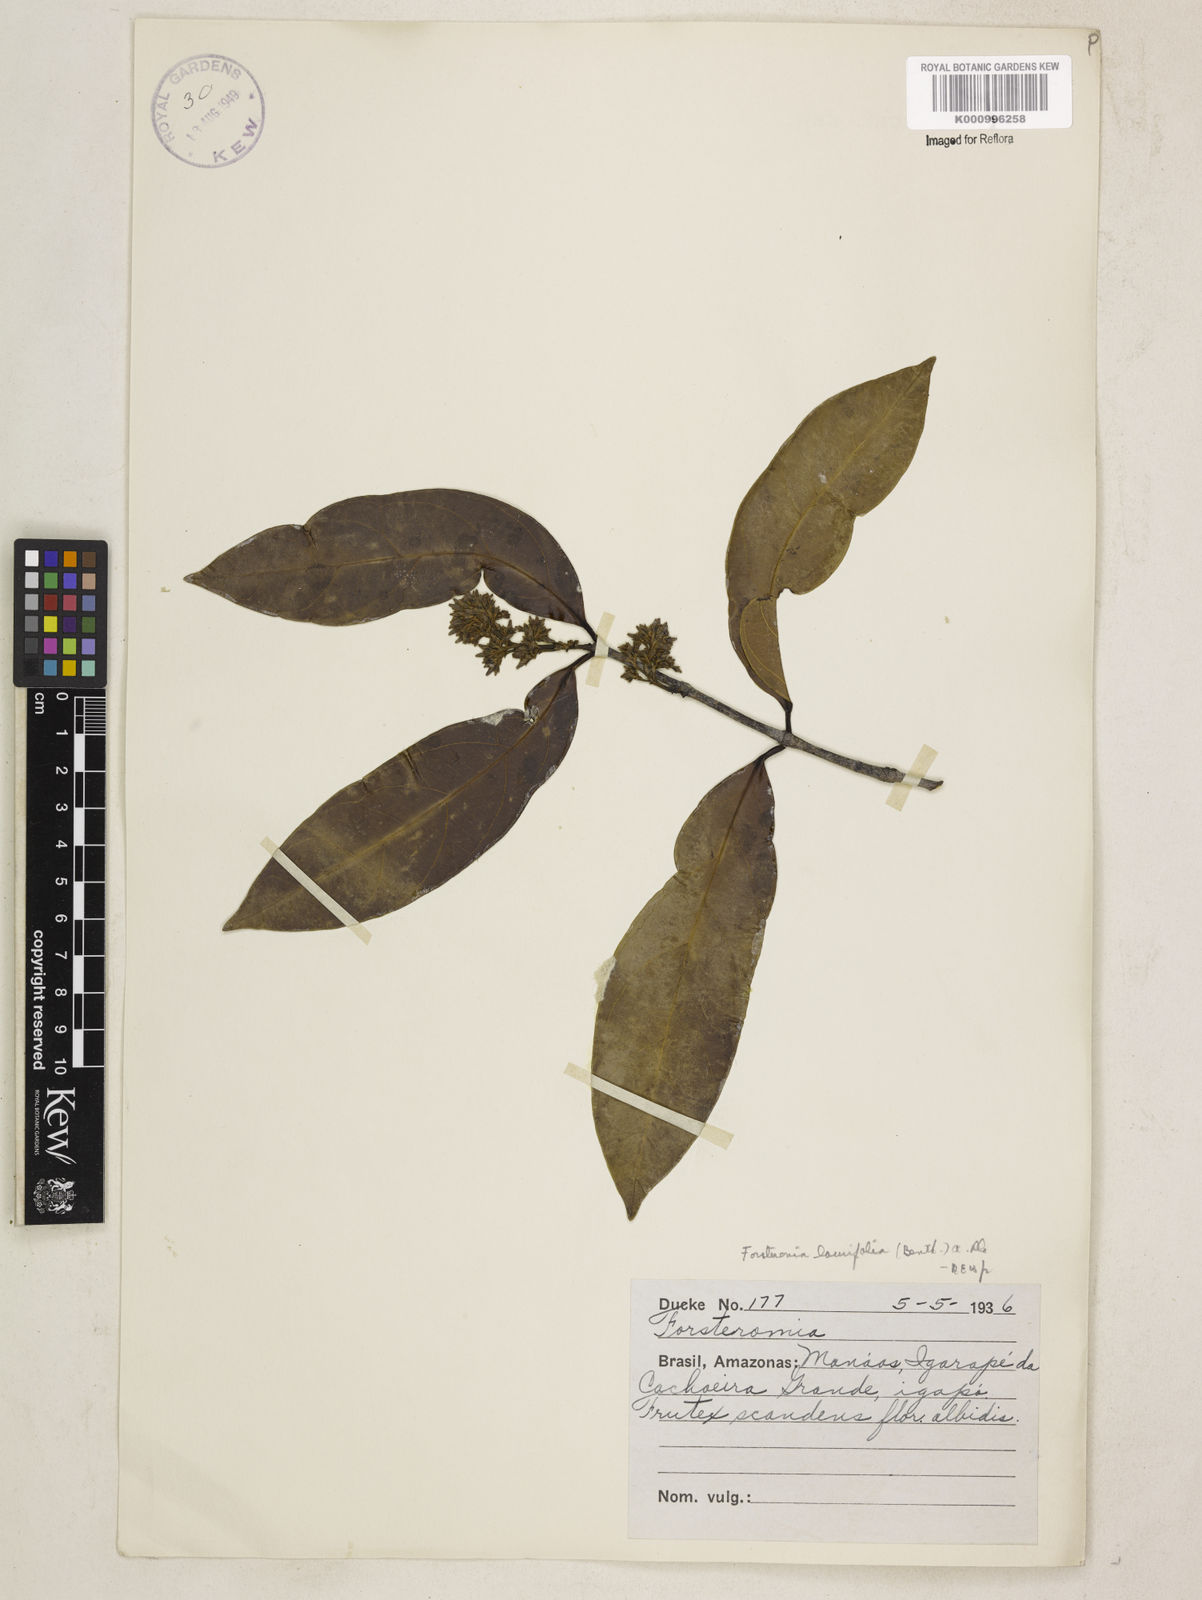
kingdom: Plantae
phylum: Tracheophyta
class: Magnoliopsida
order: Gentianales
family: Apocynaceae
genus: Forsteronia
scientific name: Forsteronia laurifolia
